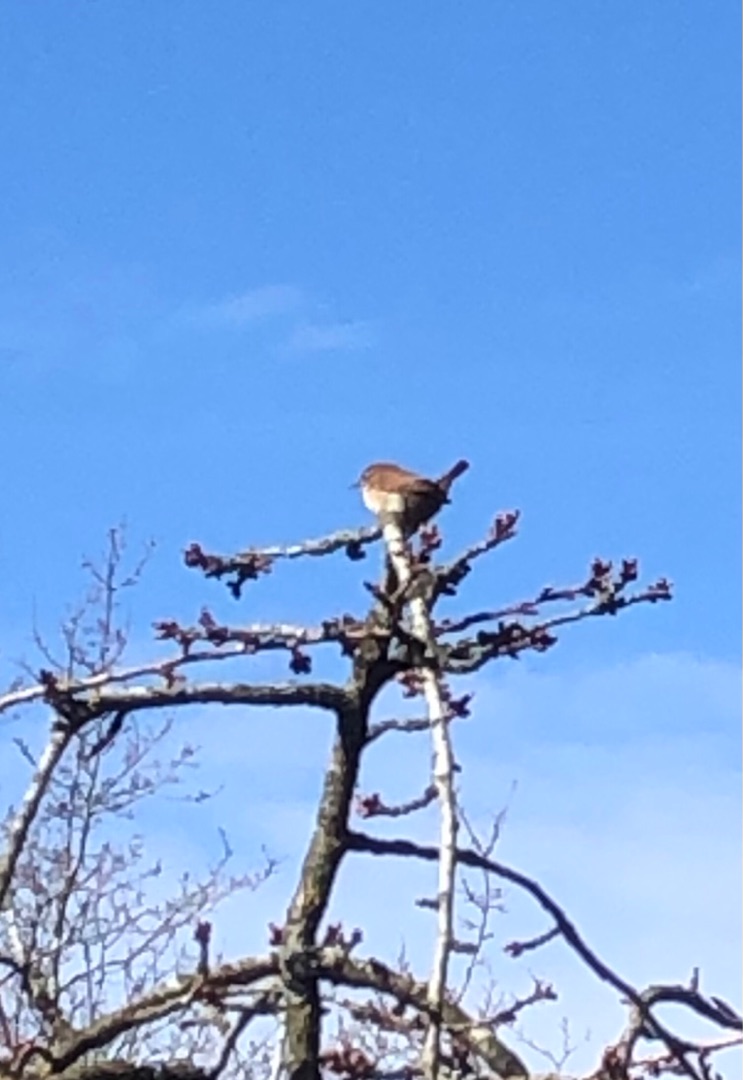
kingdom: Animalia
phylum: Chordata
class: Aves
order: Passeriformes
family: Troglodytidae
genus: Troglodytes
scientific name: Troglodytes troglodytes
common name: Gærdesmutte
